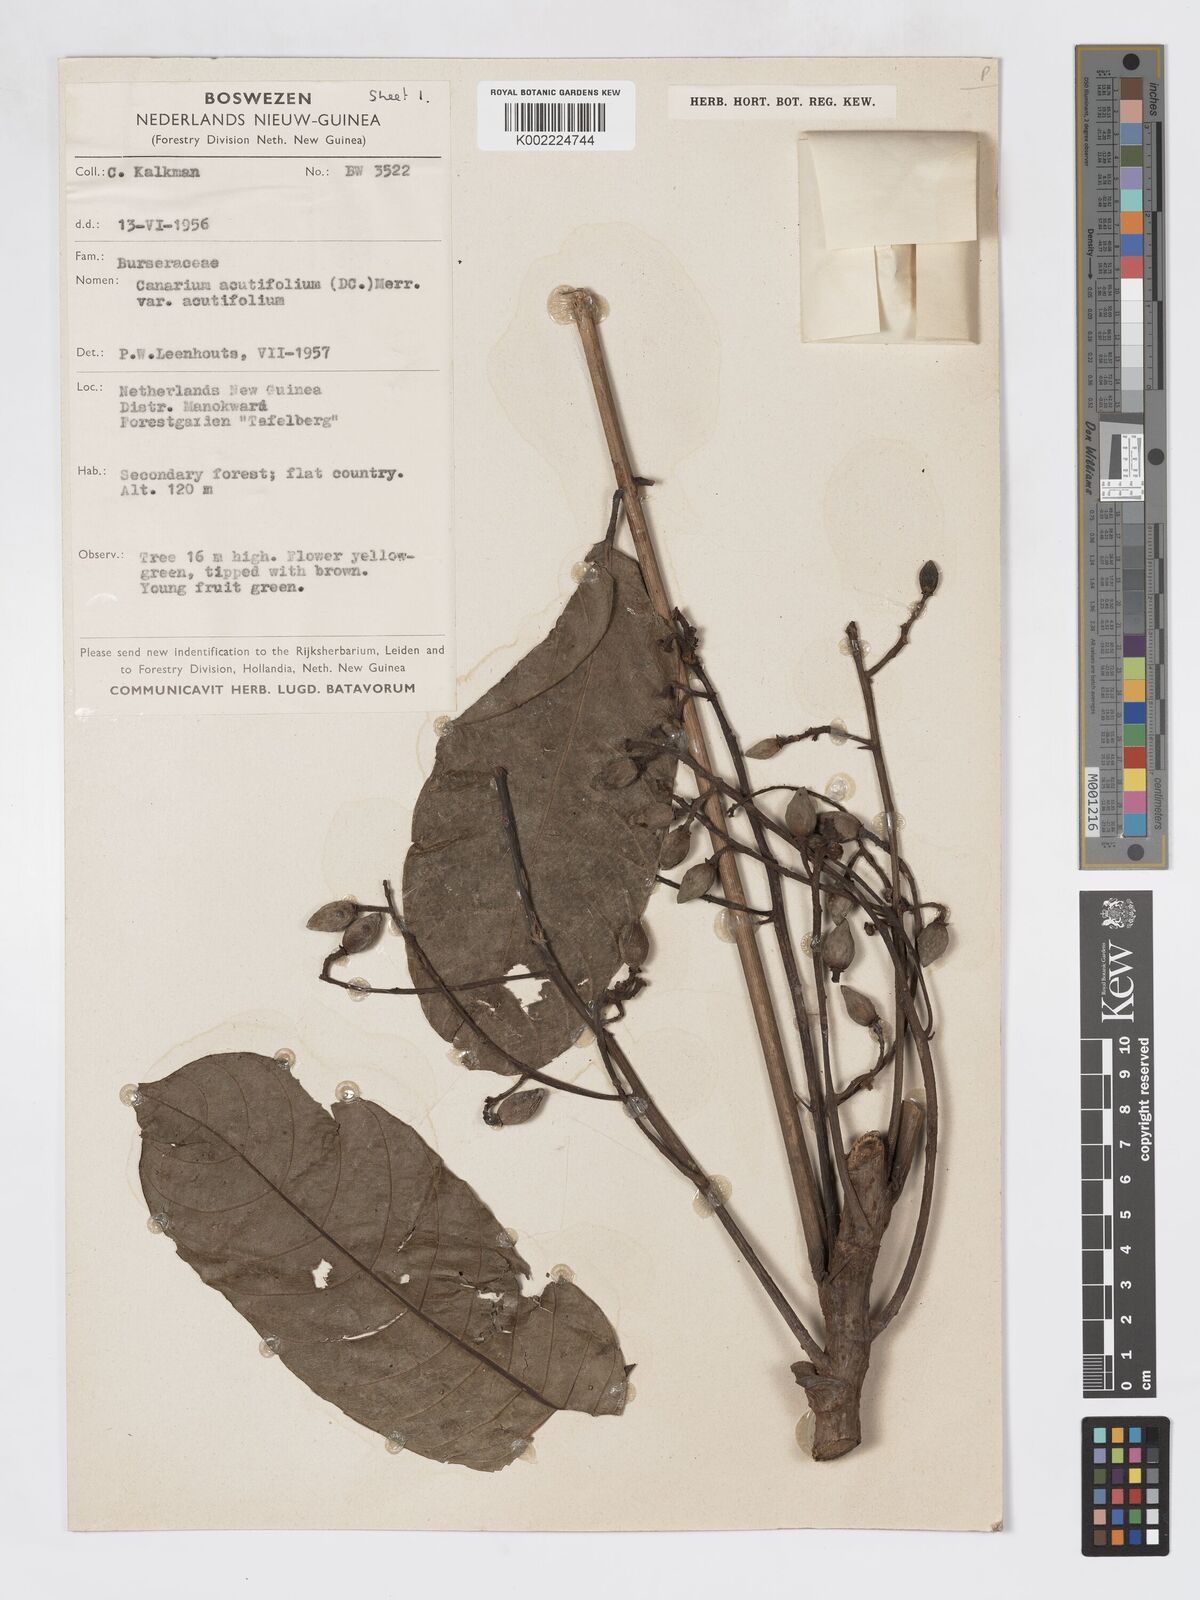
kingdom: Plantae
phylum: Tracheophyta
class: Magnoliopsida
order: Sapindales
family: Burseraceae
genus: Canarium
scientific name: Canarium acutifolium
